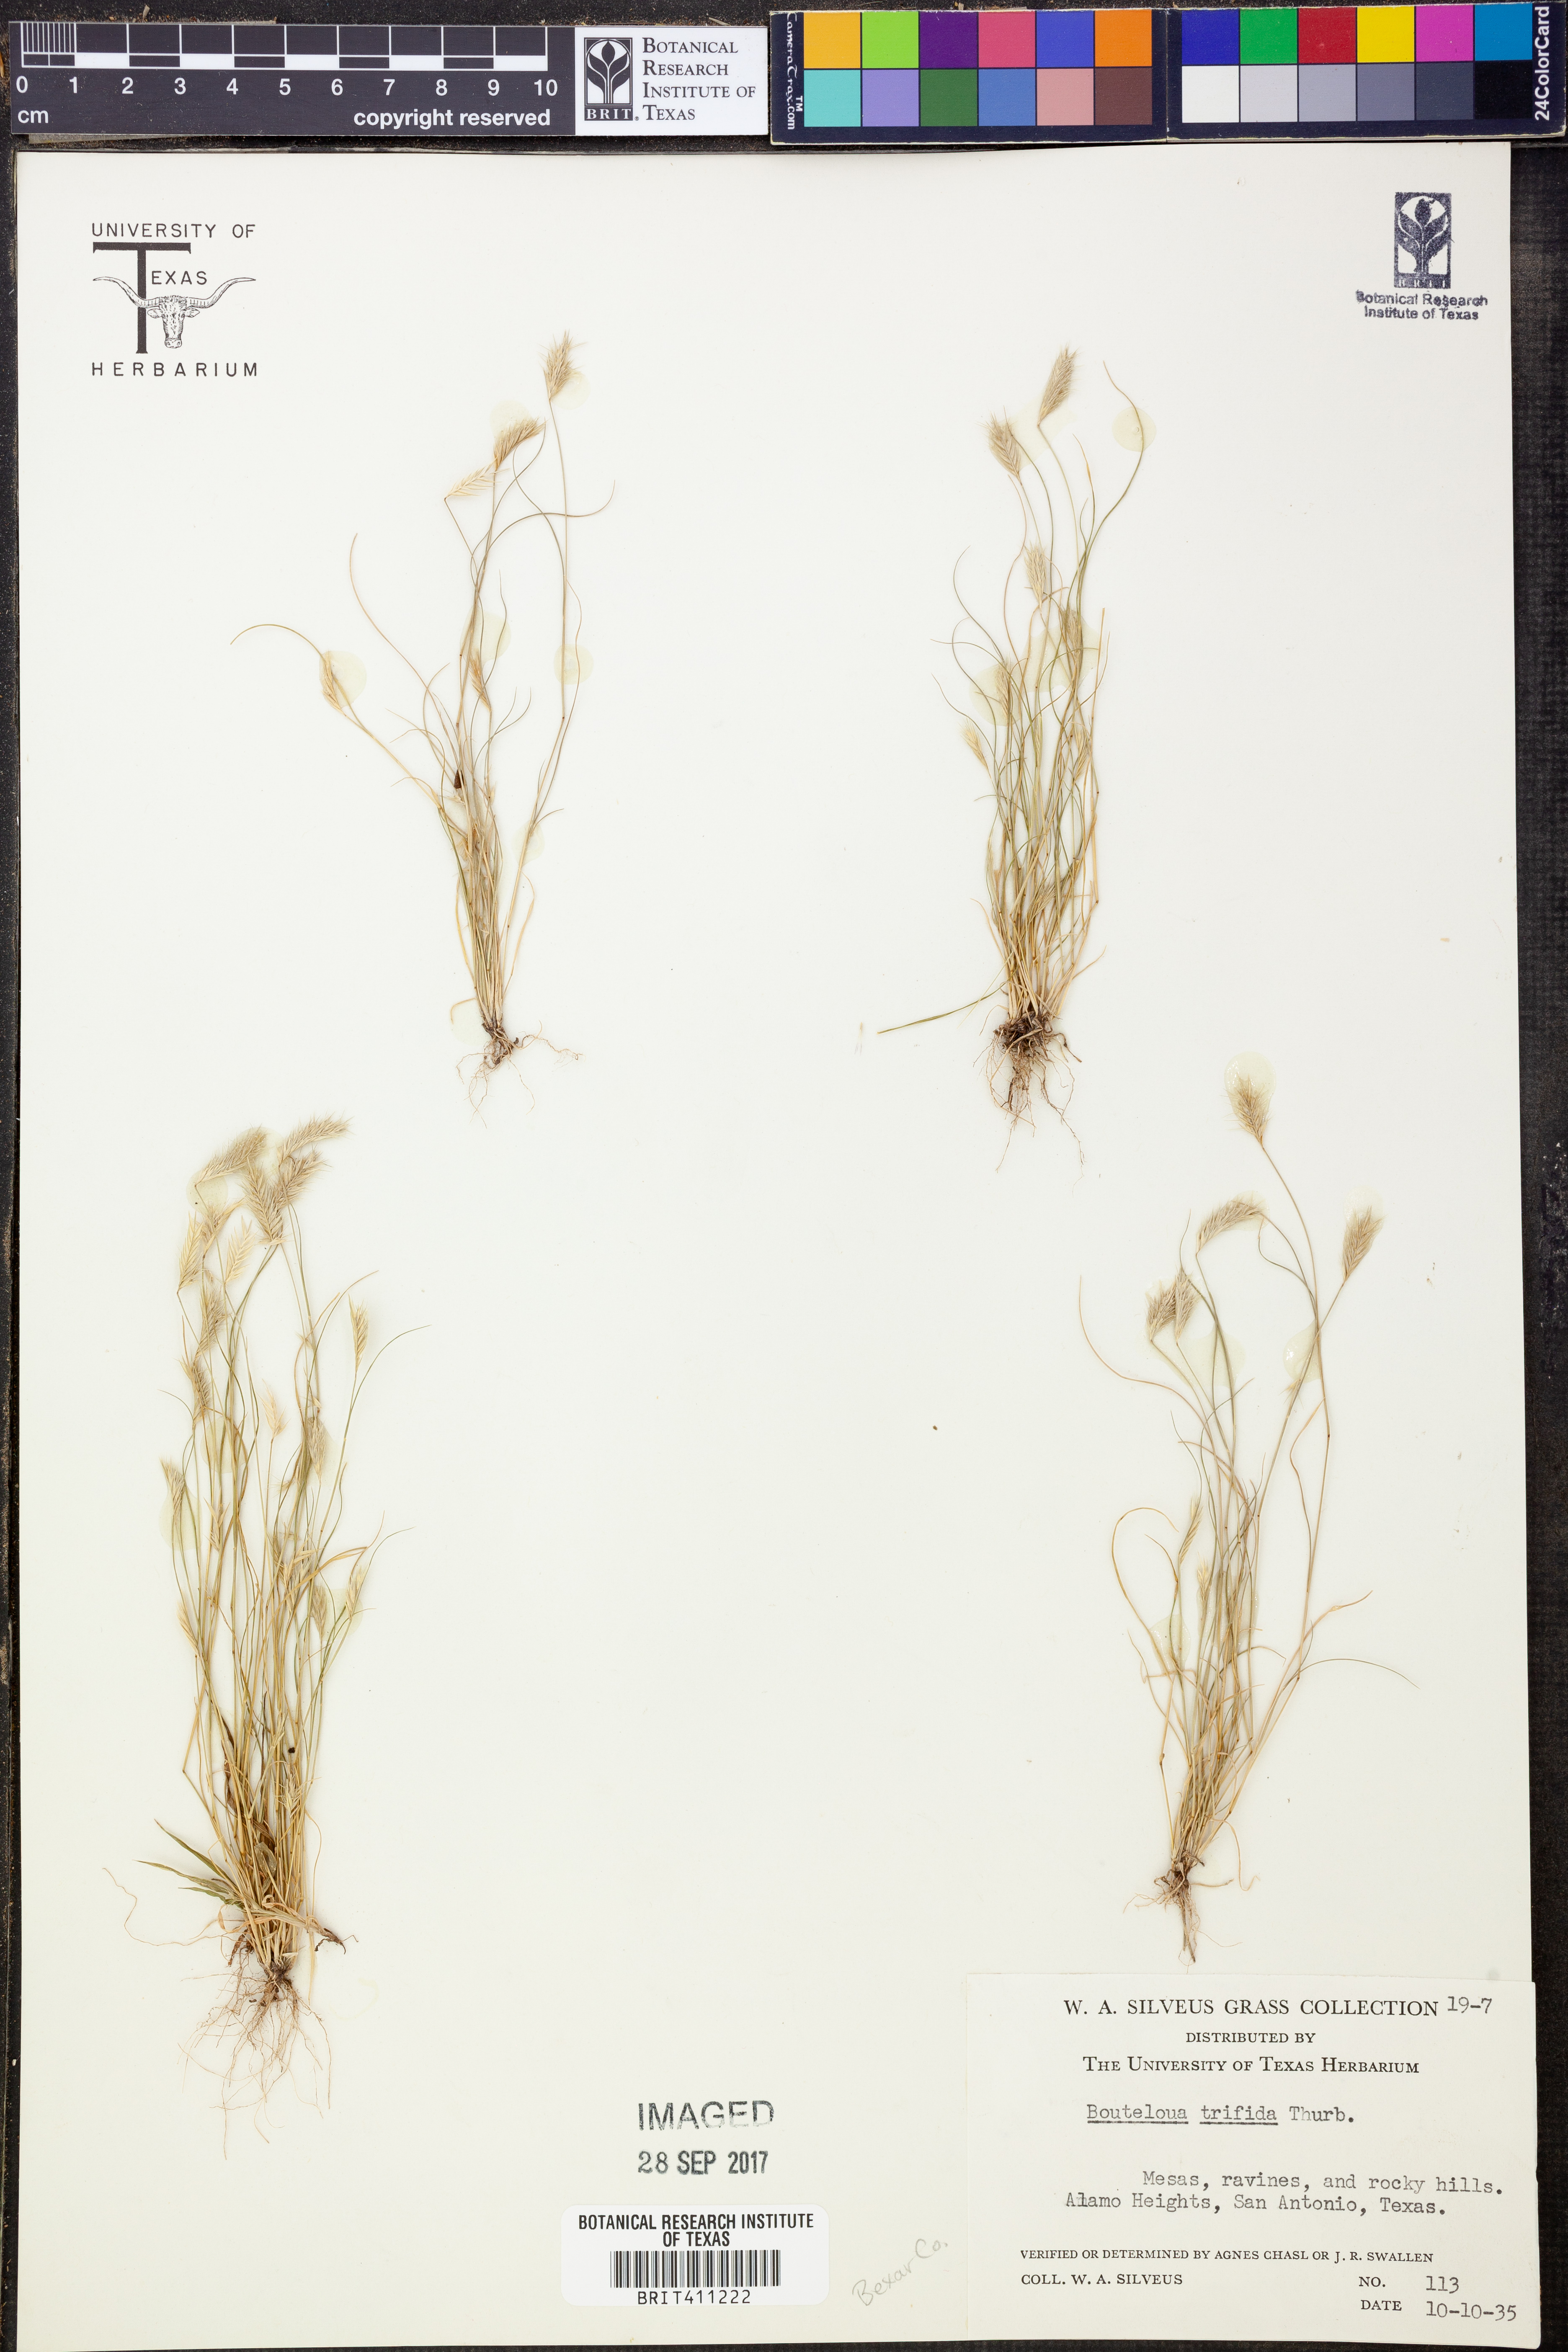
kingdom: Plantae
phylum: Tracheophyta
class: Liliopsida
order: Poales
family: Poaceae
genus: Bouteloua
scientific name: Bouteloua trifida
